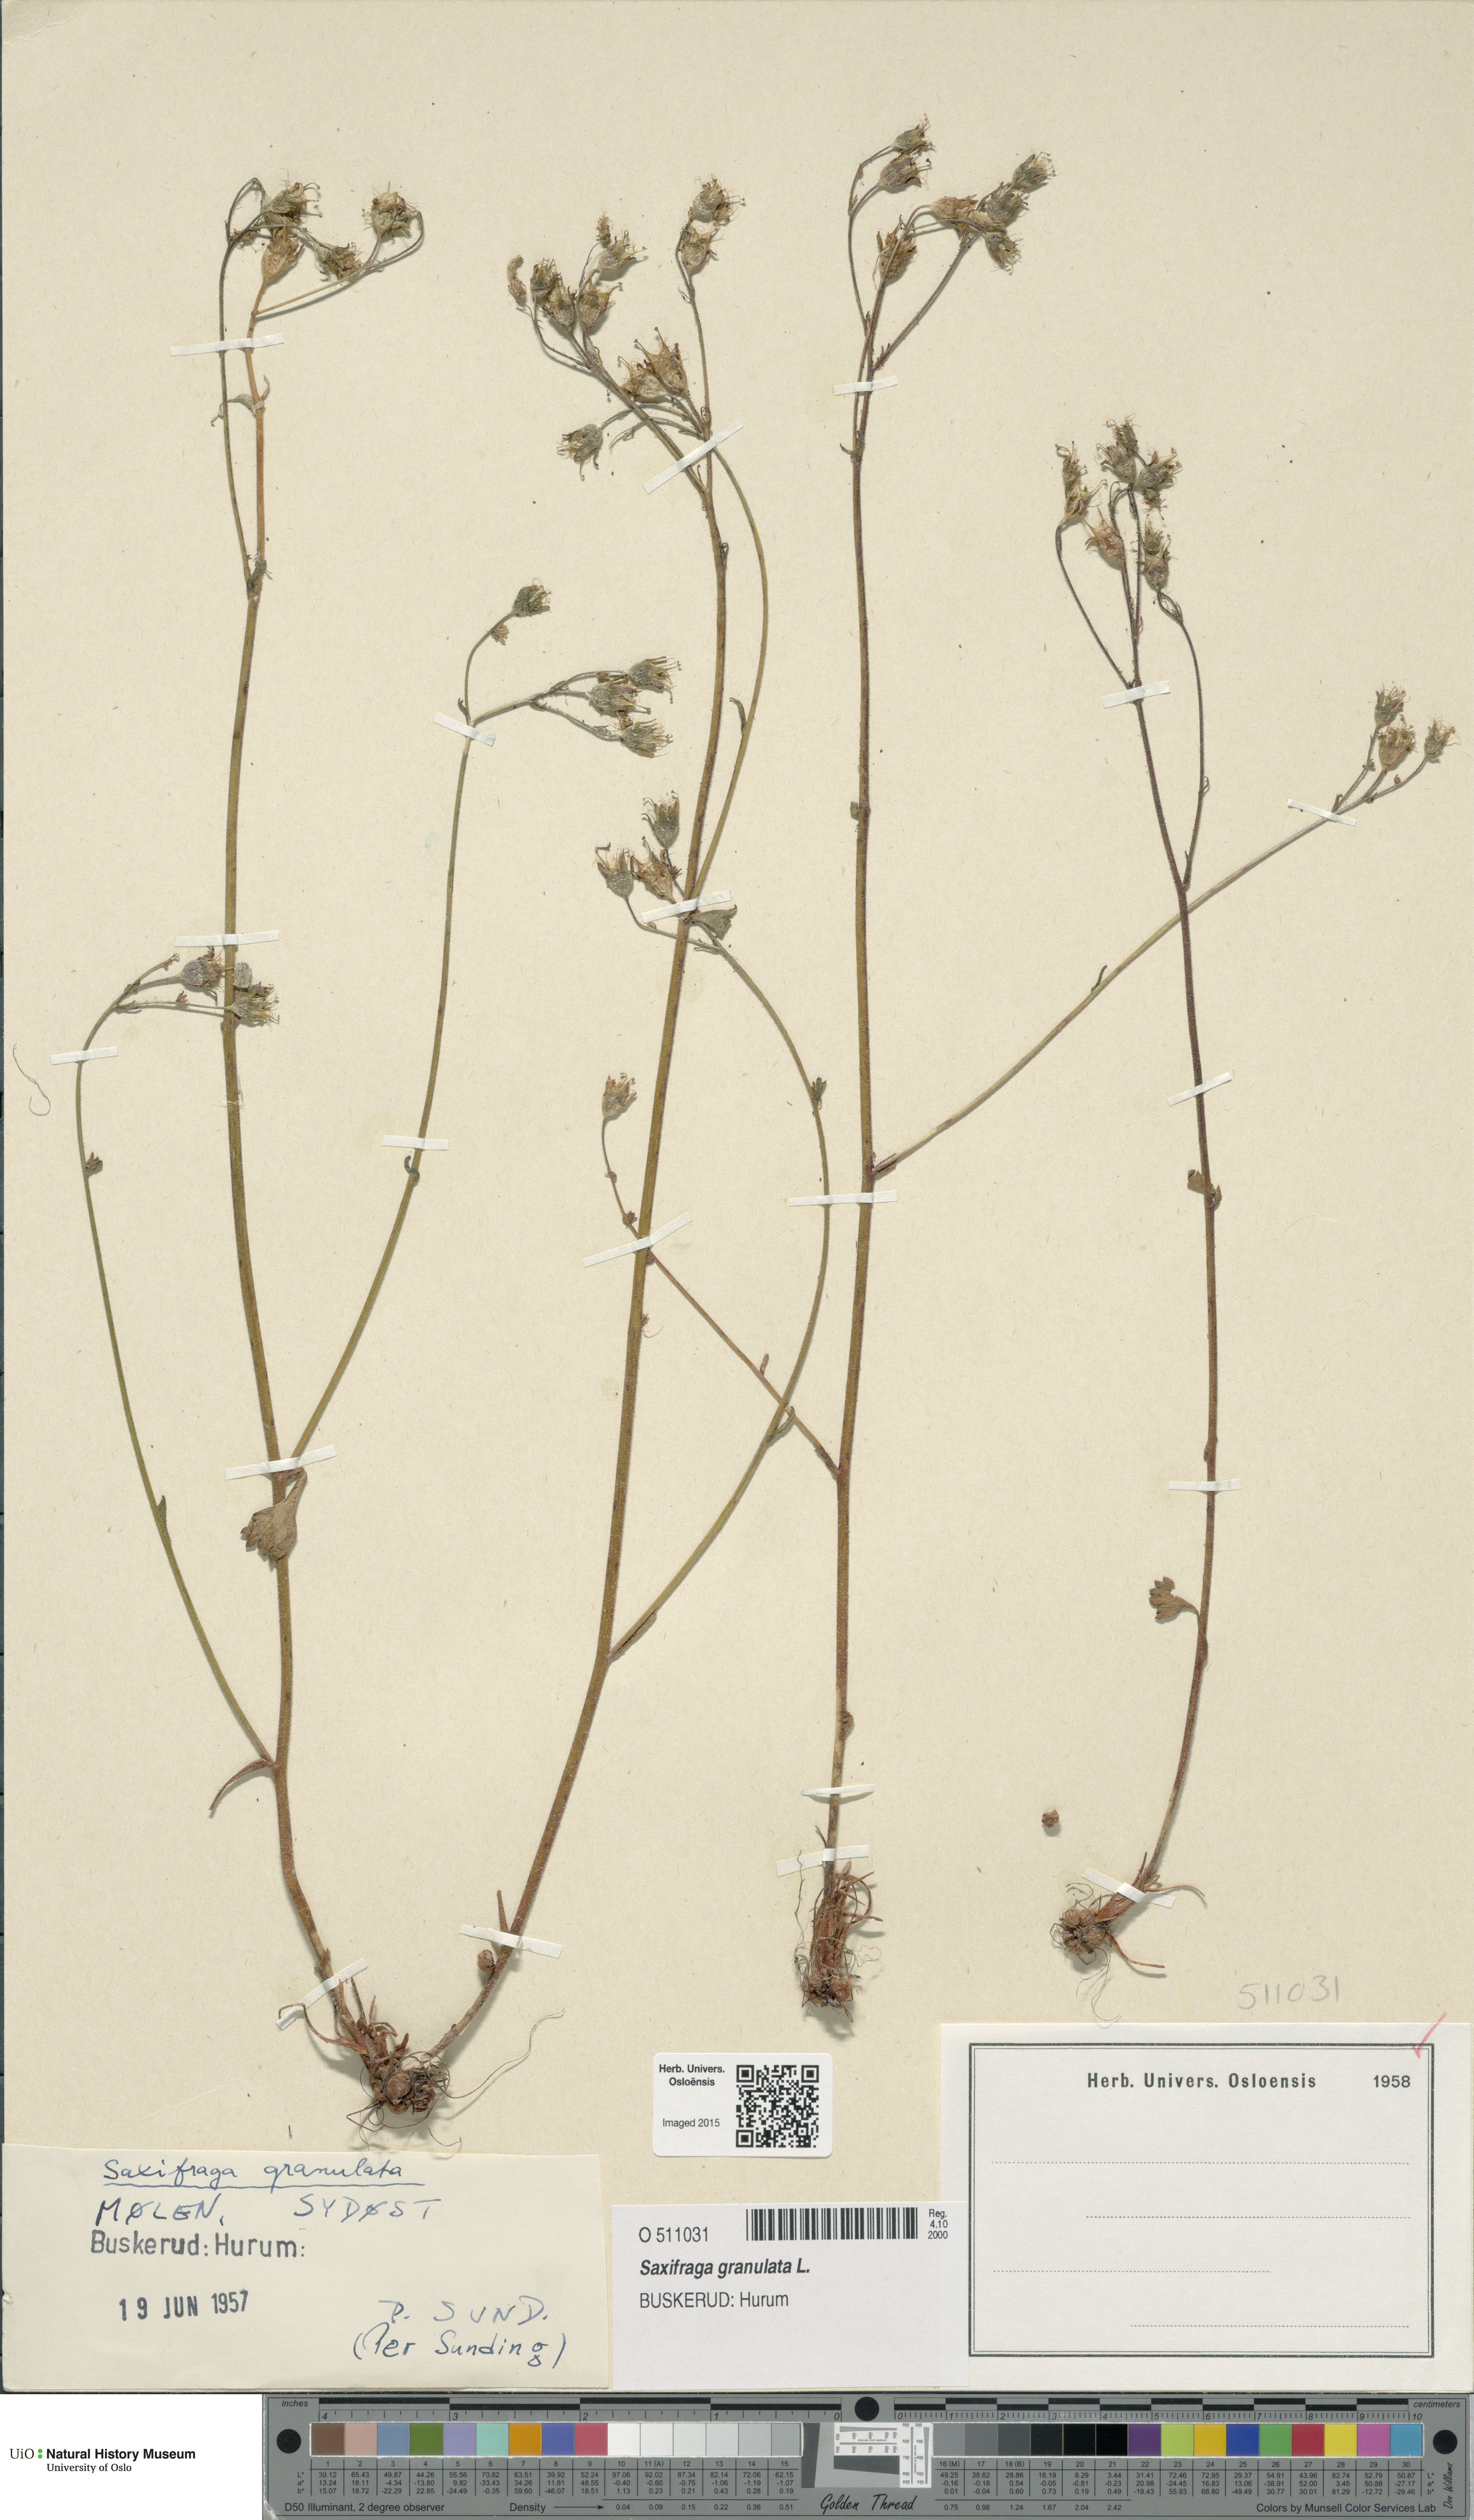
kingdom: Plantae
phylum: Tracheophyta
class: Magnoliopsida
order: Saxifragales
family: Saxifragaceae
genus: Saxifraga
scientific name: Saxifraga granulata
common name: Meadow saxifrage
